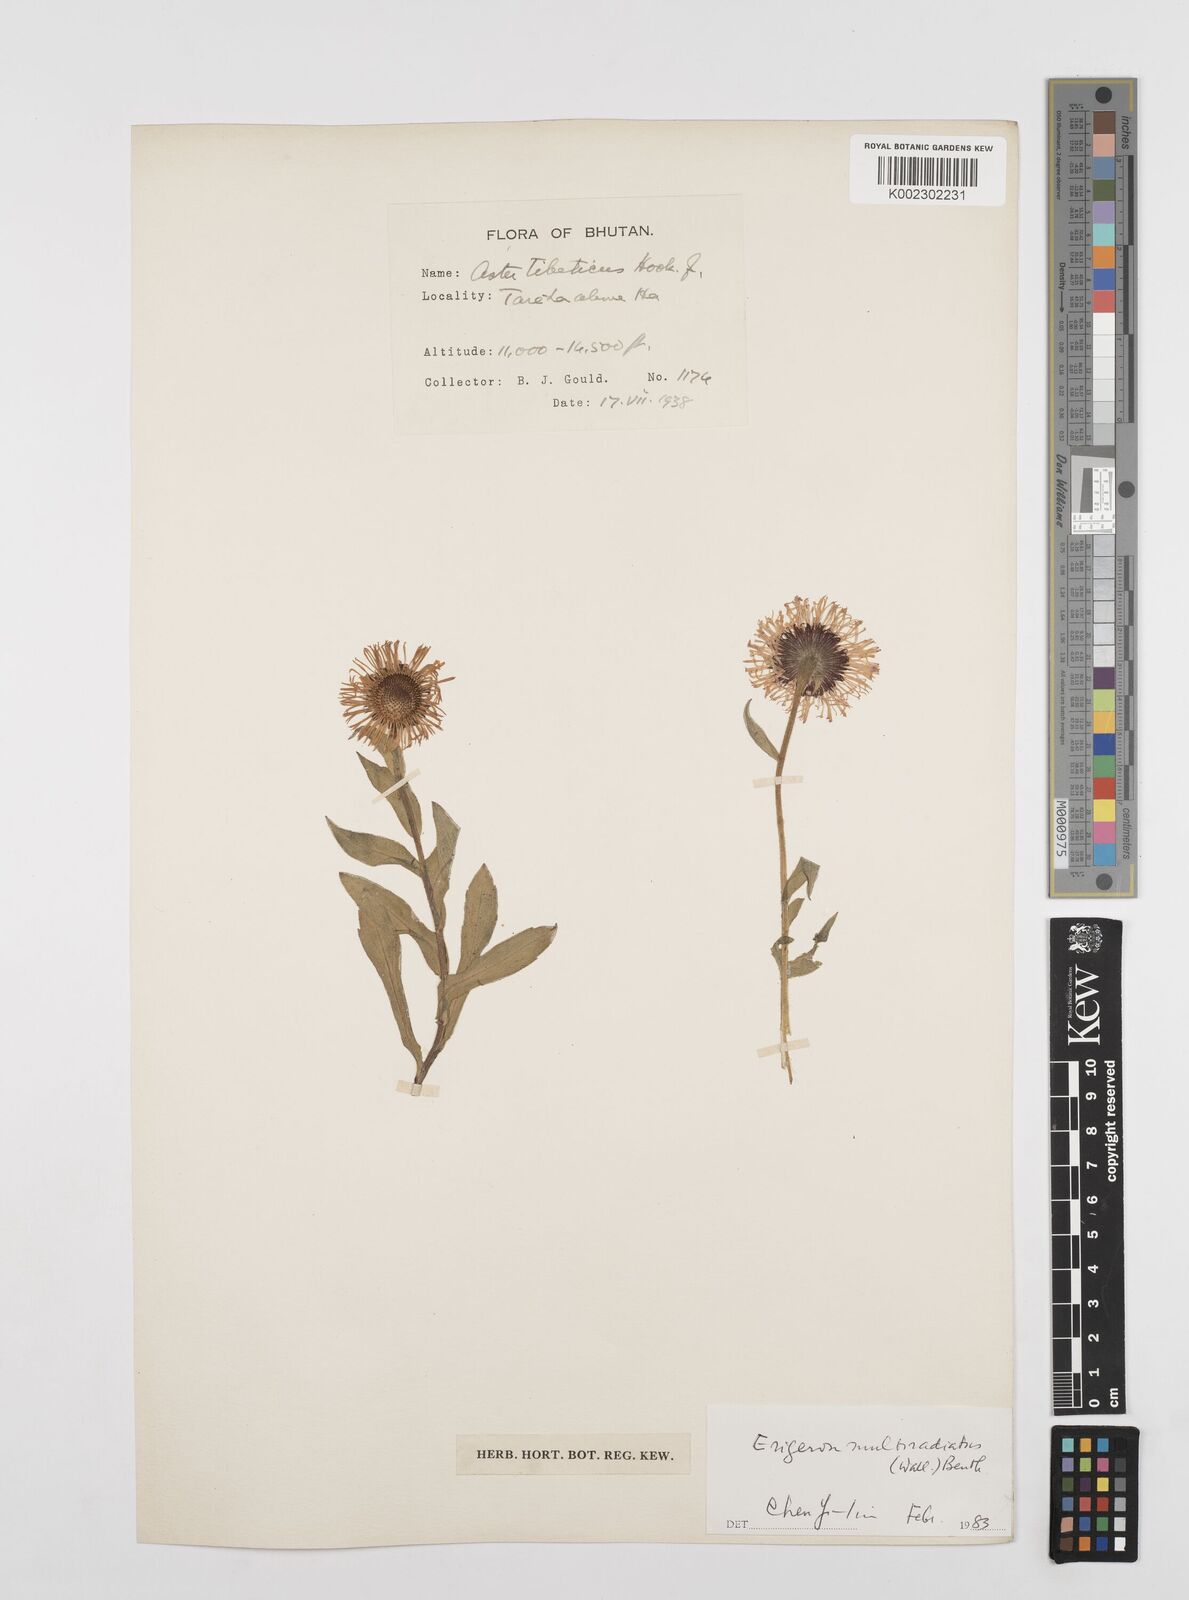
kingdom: Plantae
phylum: Tracheophyta
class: Magnoliopsida
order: Asterales
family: Asteraceae
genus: Erigeron
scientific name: Erigeron multiradiatus
